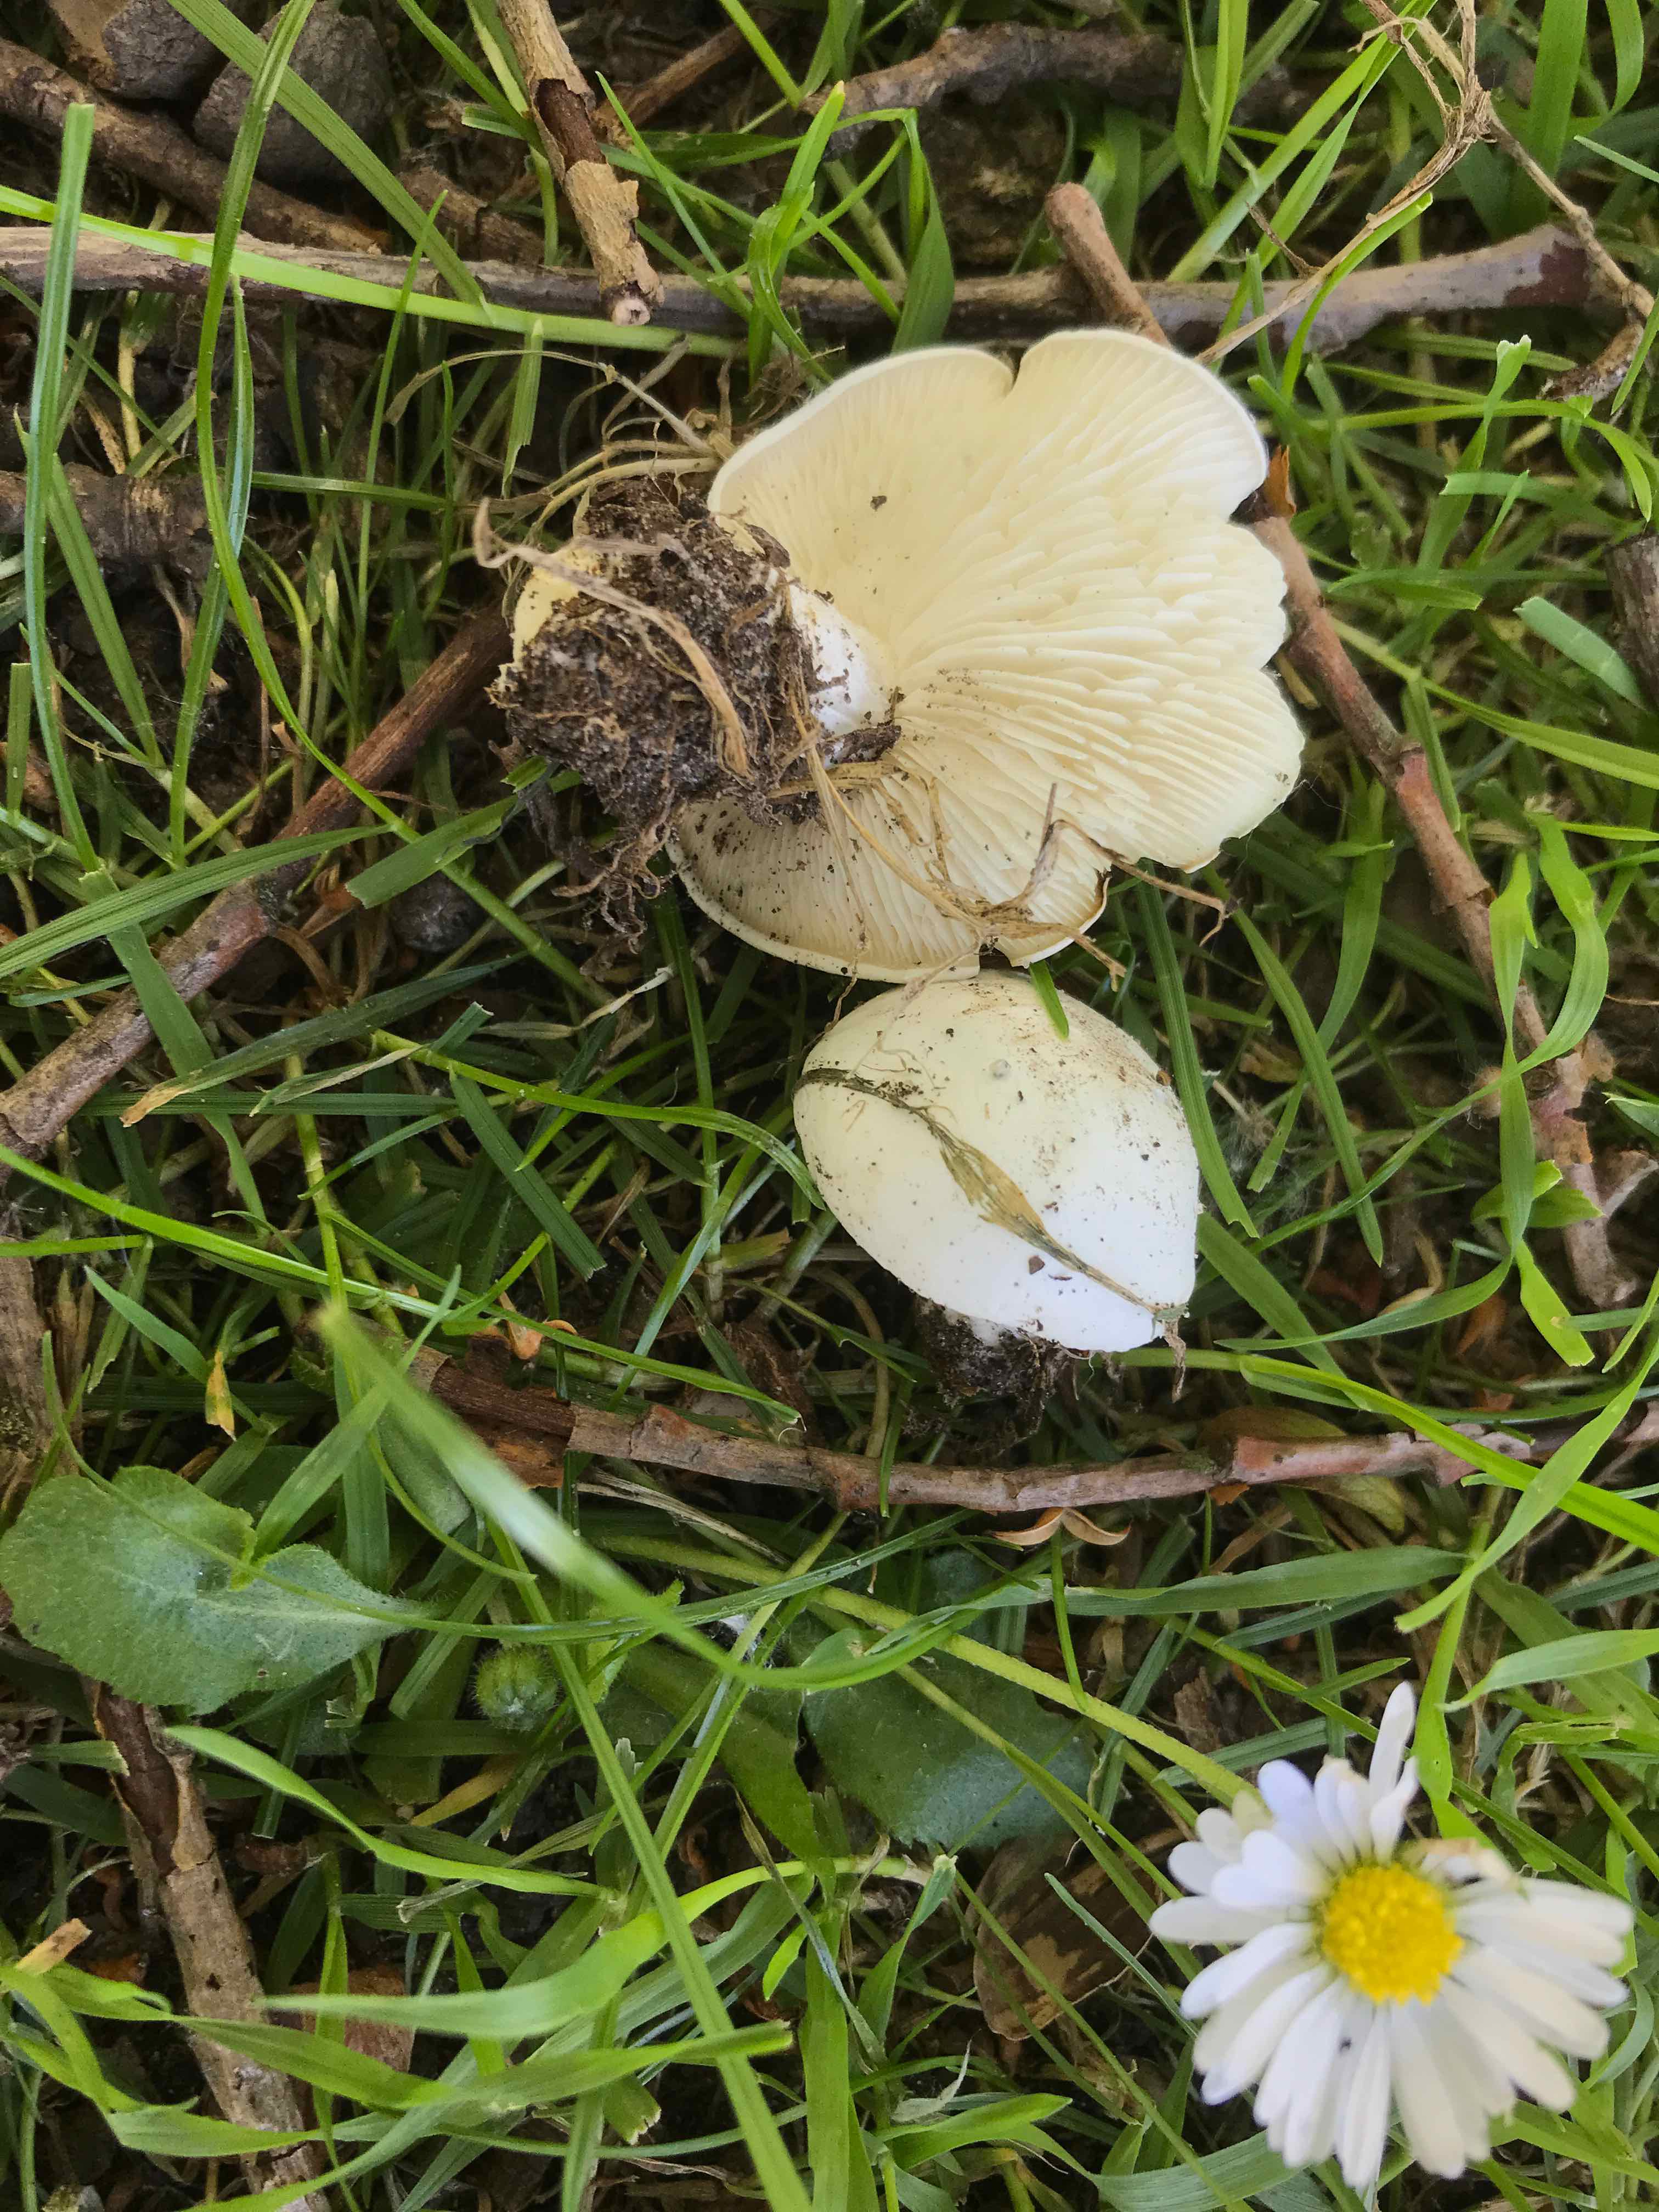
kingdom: Fungi
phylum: Basidiomycota
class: Agaricomycetes
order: Agaricales
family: Lyophyllaceae
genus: Calocybe
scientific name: Calocybe gambosa
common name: vårmusseron
